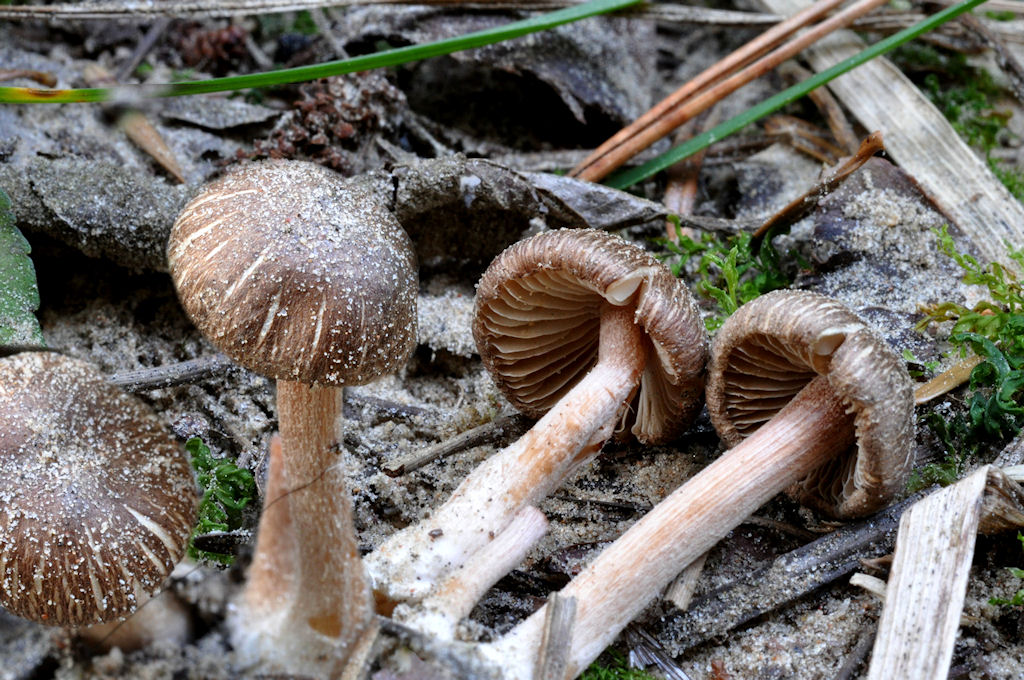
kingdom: Fungi
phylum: Basidiomycota
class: Agaricomycetes
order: Agaricales
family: Inocybaceae
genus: Inocybe
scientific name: Inocybe
